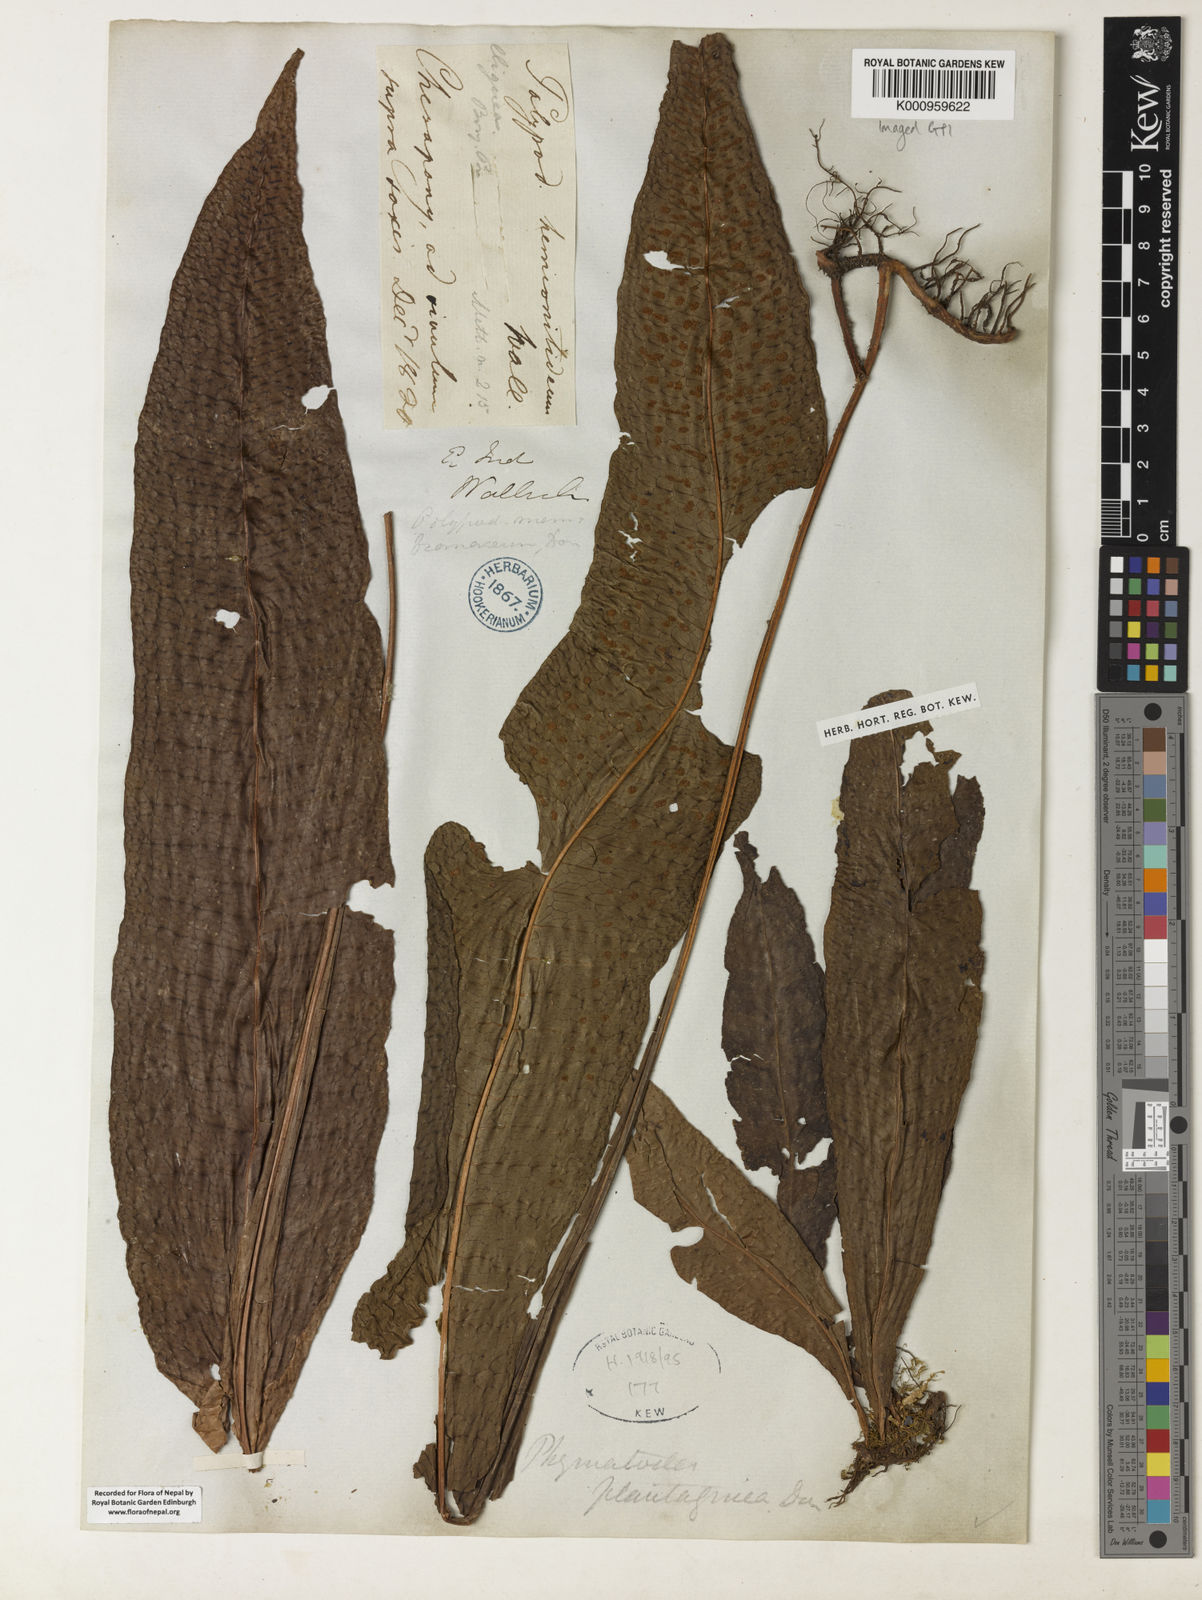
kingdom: Plantae
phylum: Tracheophyta
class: Polypodiopsida
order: Polypodiales
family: Polypodiaceae
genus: Leptochilus
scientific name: Leptochilus hemionitideus
